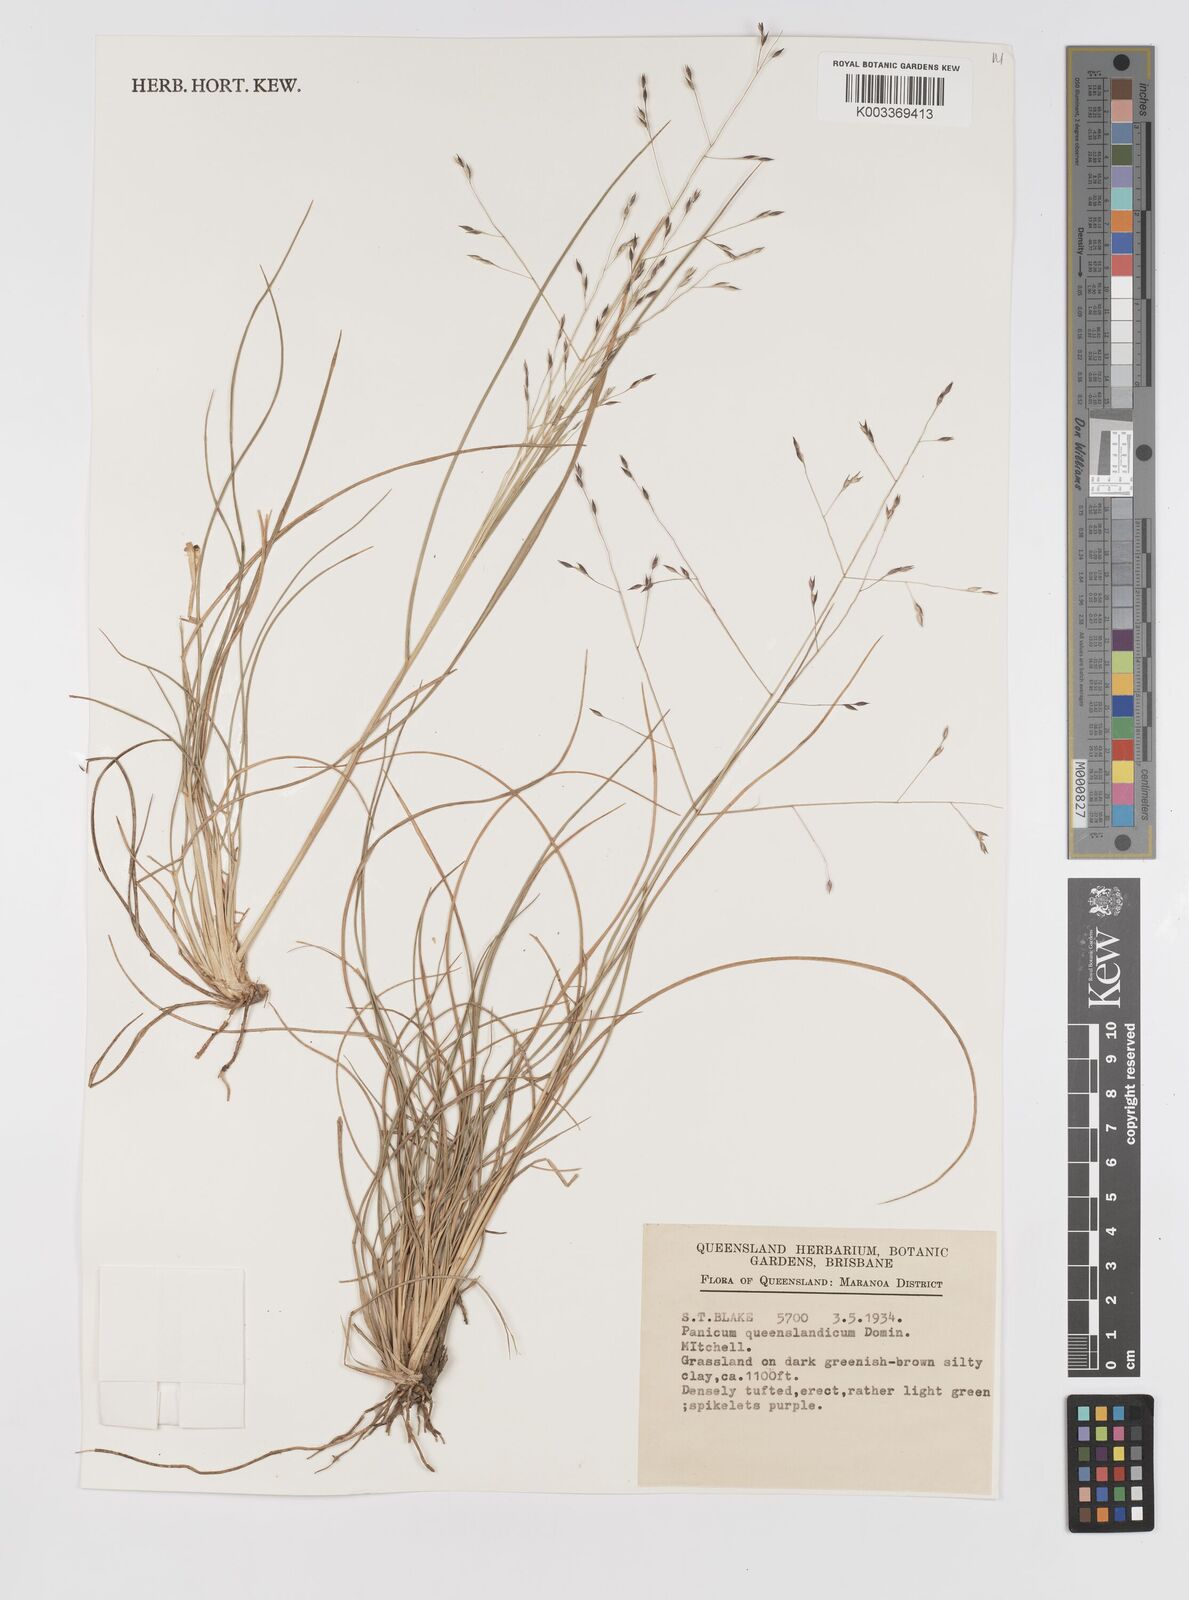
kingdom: Plantae
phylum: Tracheophyta
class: Liliopsida
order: Poales
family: Poaceae
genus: Panicum
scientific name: Panicum queenslandicum
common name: Yabila grass
